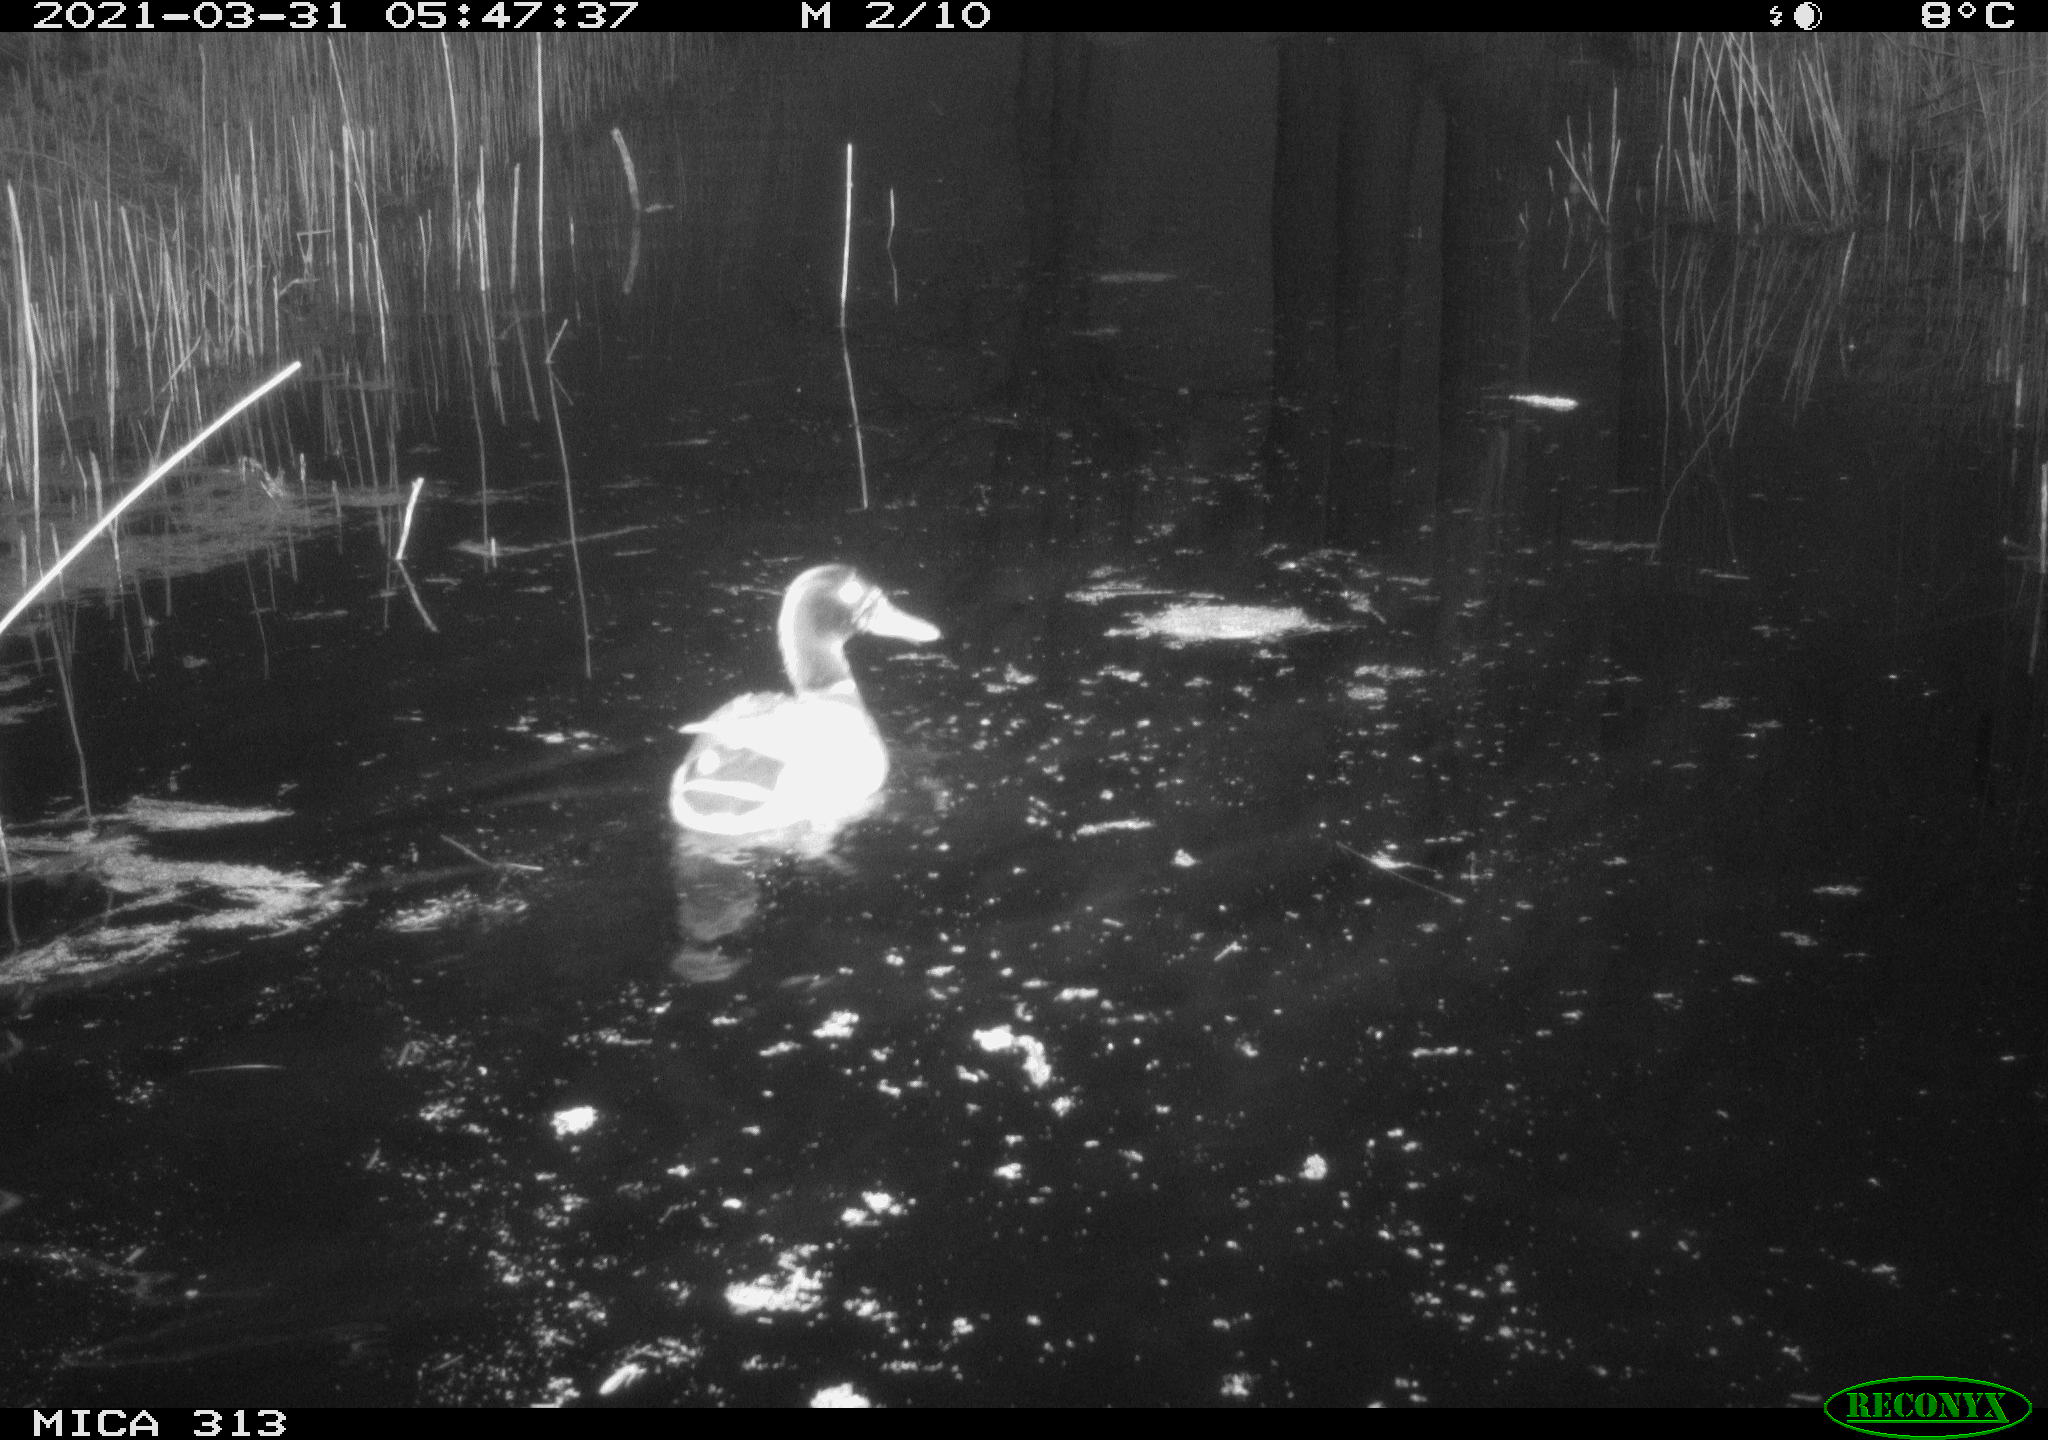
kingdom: Animalia
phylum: Chordata
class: Aves
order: Anseriformes
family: Anatidae
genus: Anas
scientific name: Anas platyrhynchos
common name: Mallard
